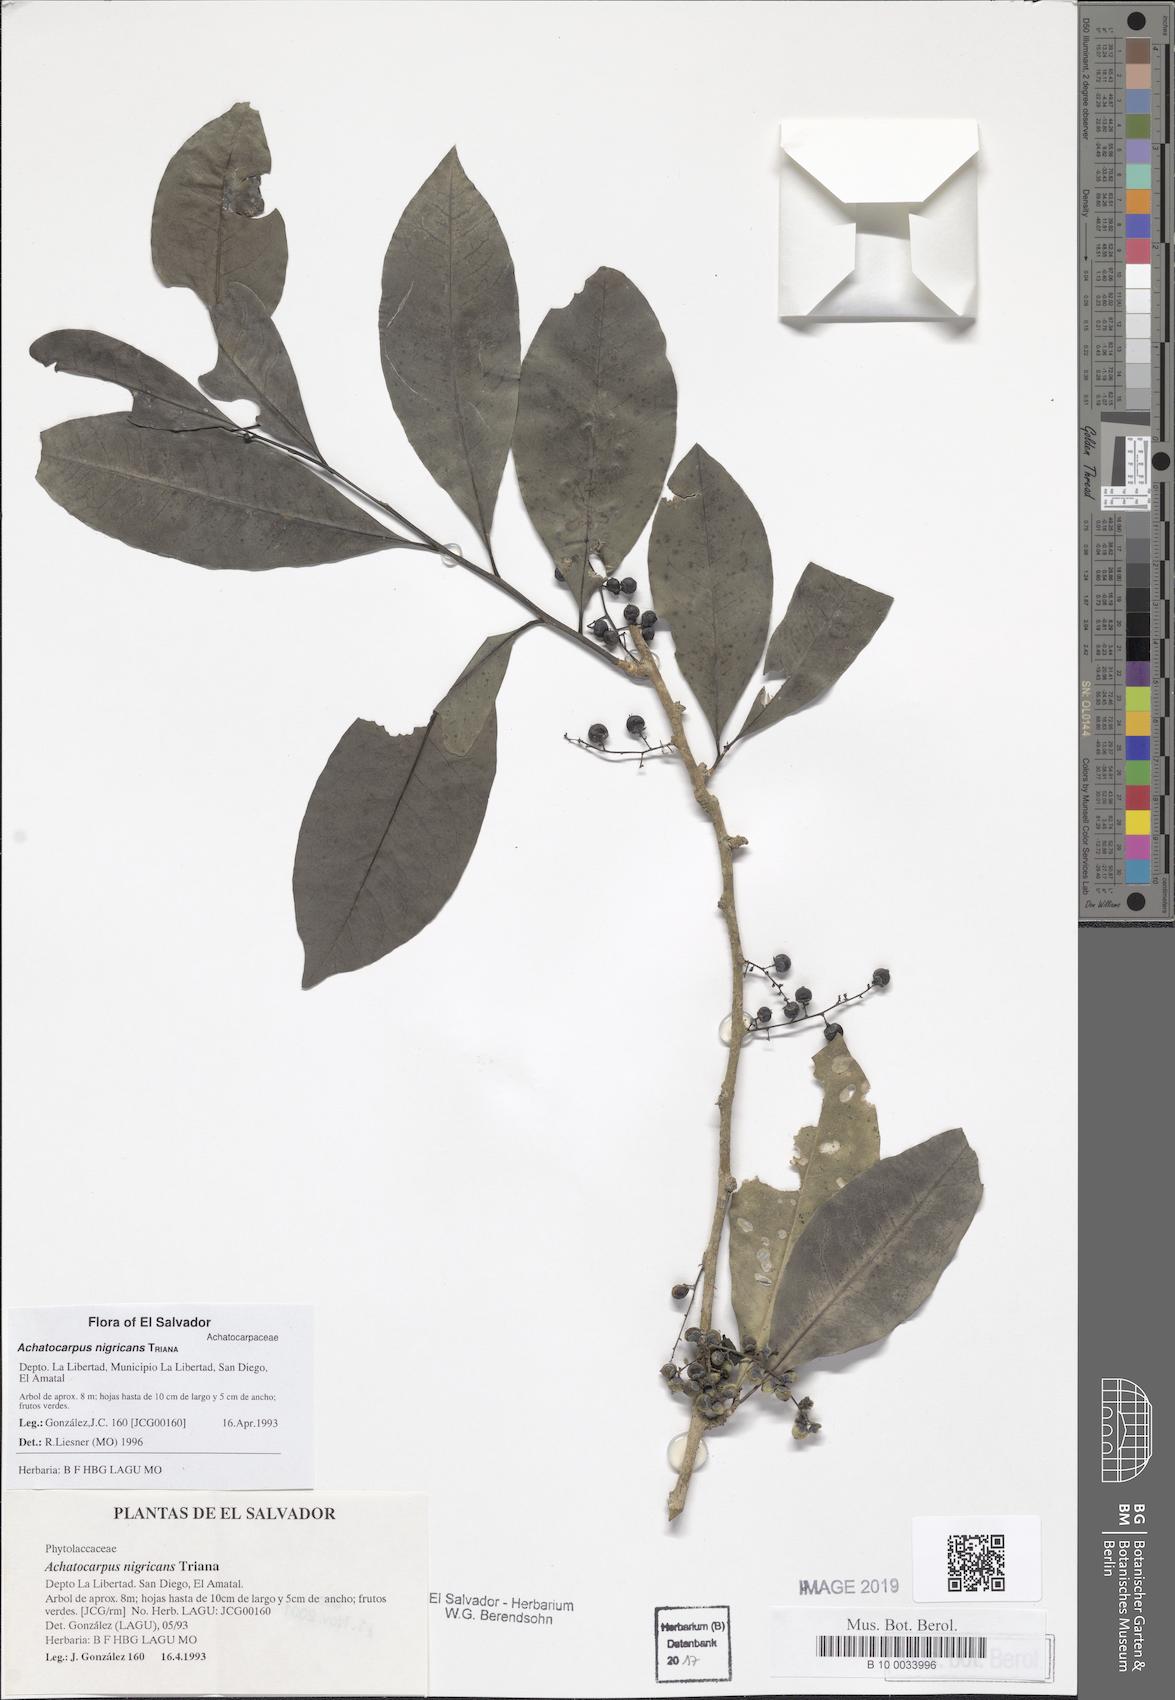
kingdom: Plantae
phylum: Tracheophyta
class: Magnoliopsida
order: Caryophyllales
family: Achatocarpaceae
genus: Achatocarpus
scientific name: Achatocarpus nigricans
